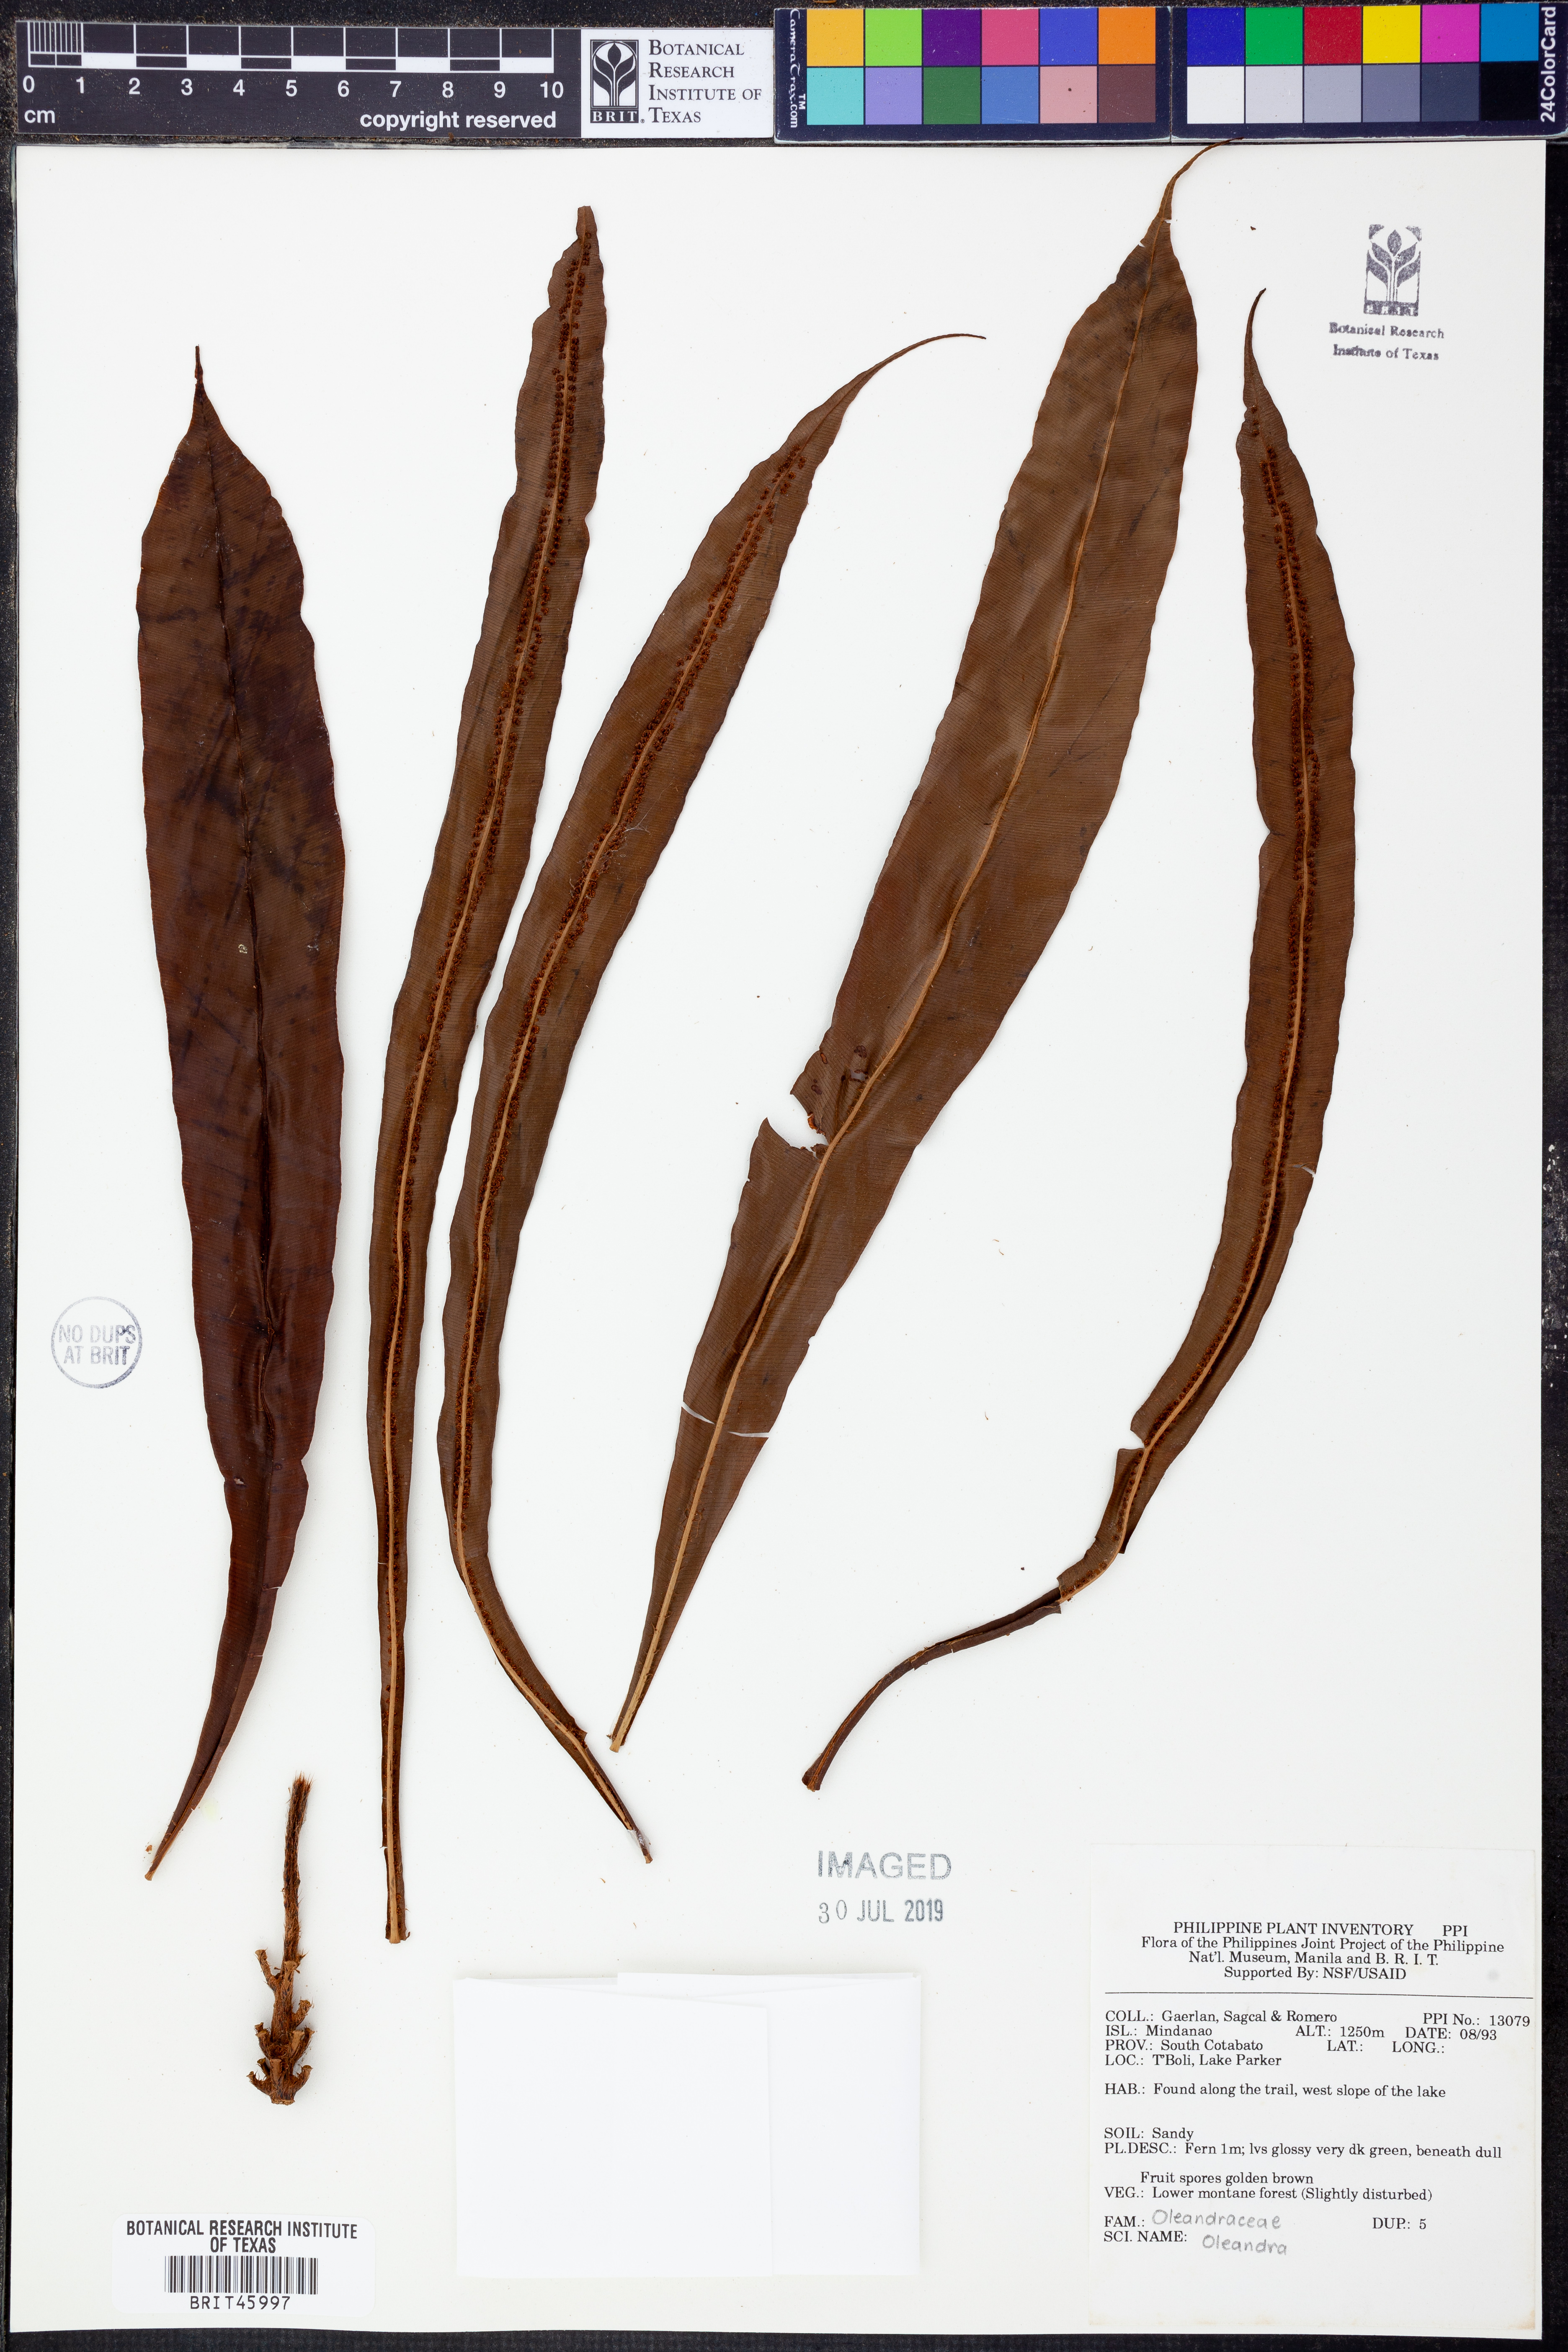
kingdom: Plantae
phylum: Tracheophyta
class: Polypodiopsida
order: Polypodiales
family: Oleandraceae
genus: Oleandra
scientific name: Oleandra
